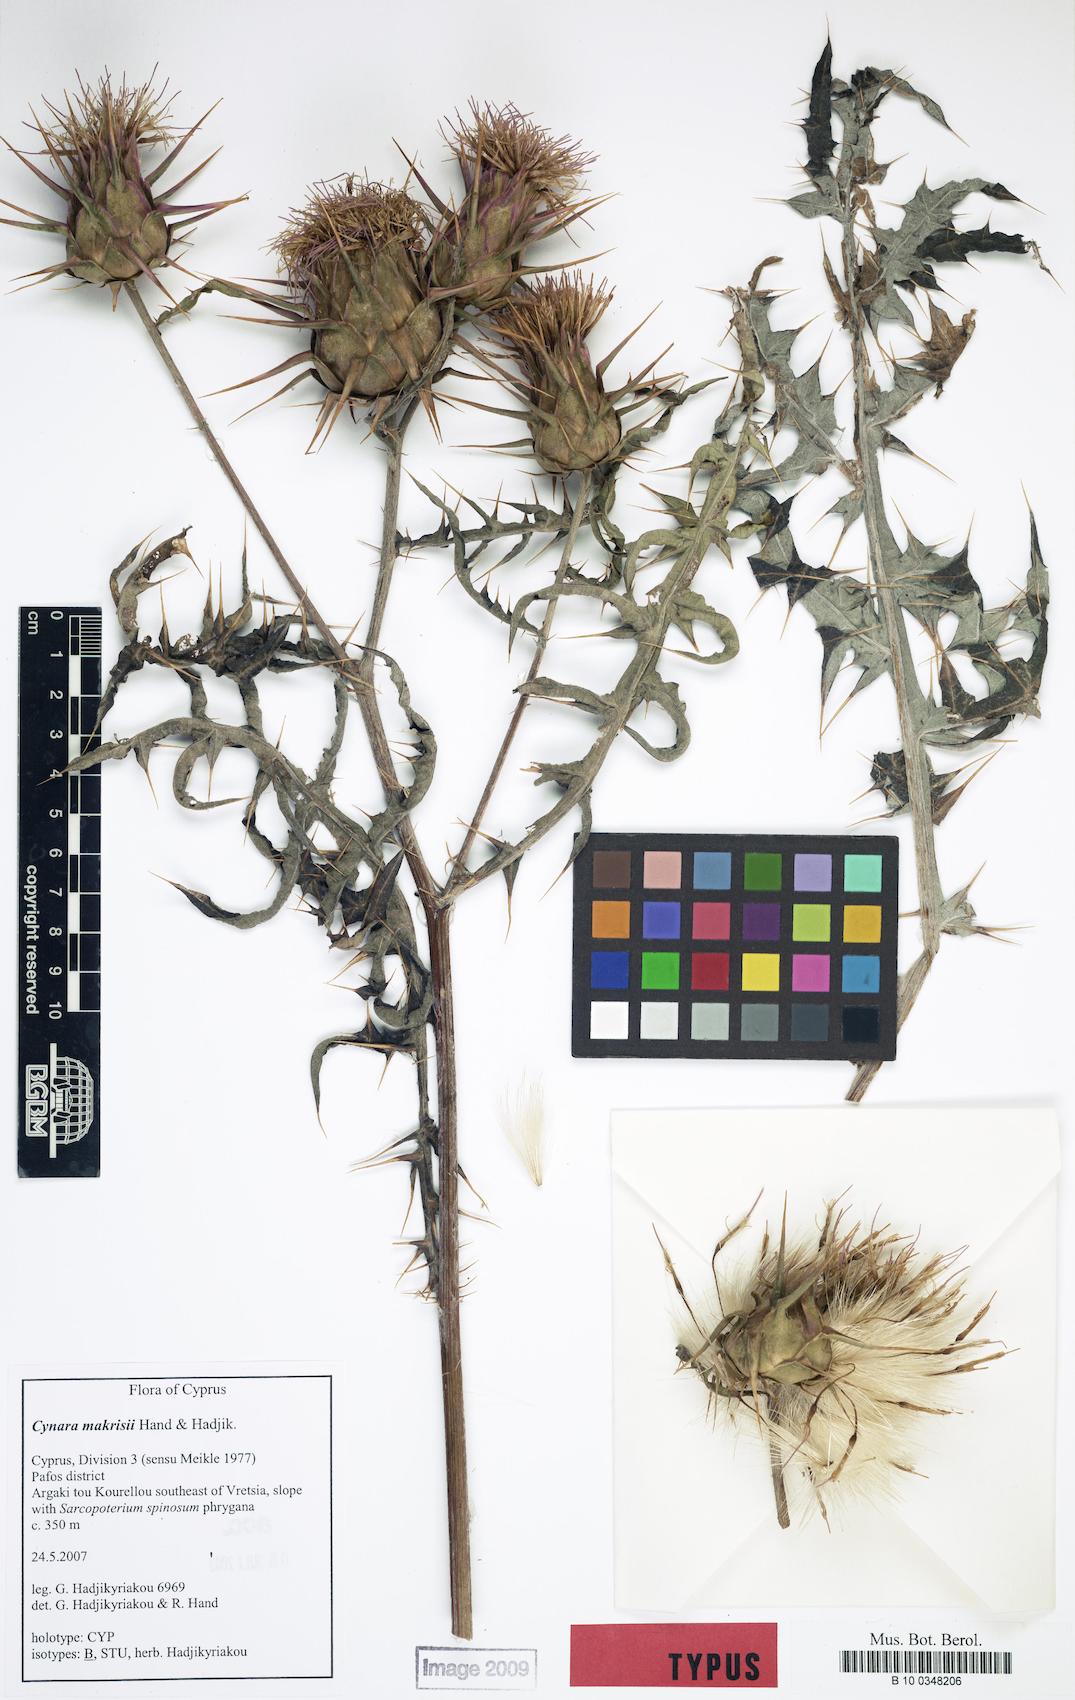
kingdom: Plantae
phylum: Tracheophyta
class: Magnoliopsida
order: Asterales
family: Asteraceae
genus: Cynara
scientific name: Cynara makrisii
